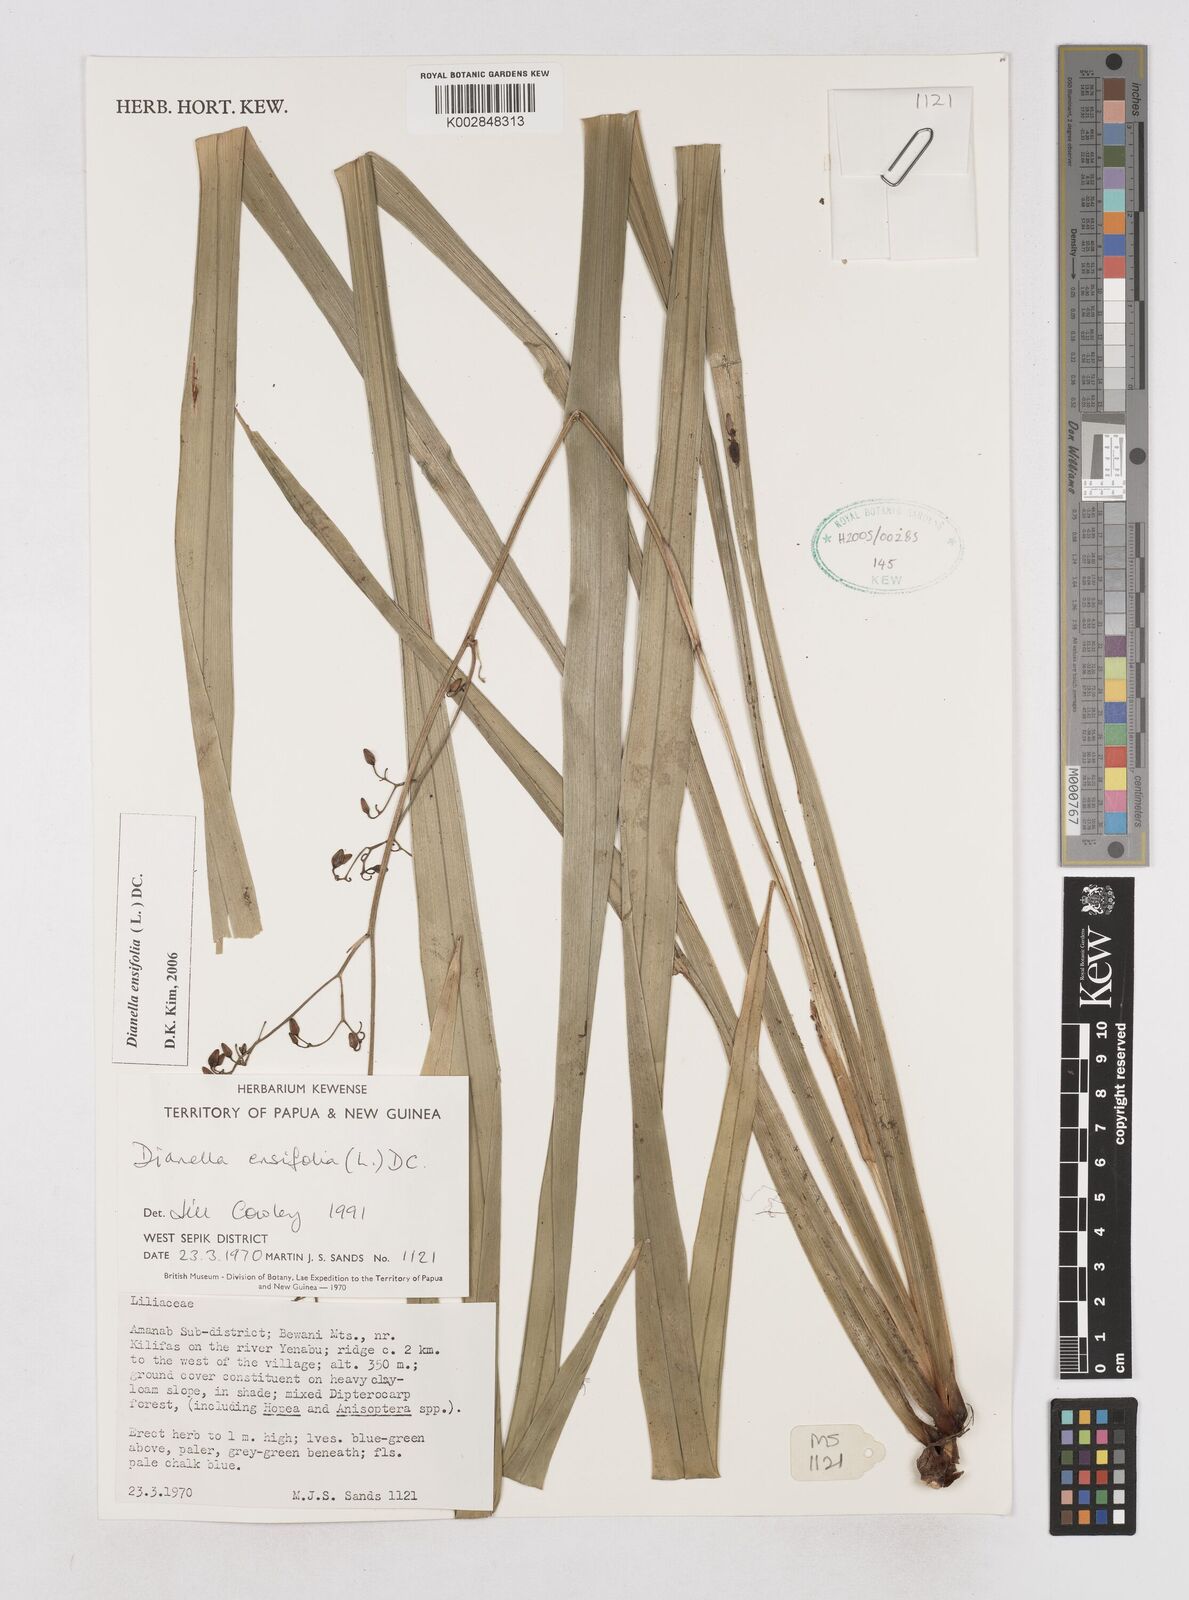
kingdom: Plantae
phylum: Tracheophyta
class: Liliopsida
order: Asparagales
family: Asphodelaceae
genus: Dianella
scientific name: Dianella ensifolia
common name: New zealand lilyplant
